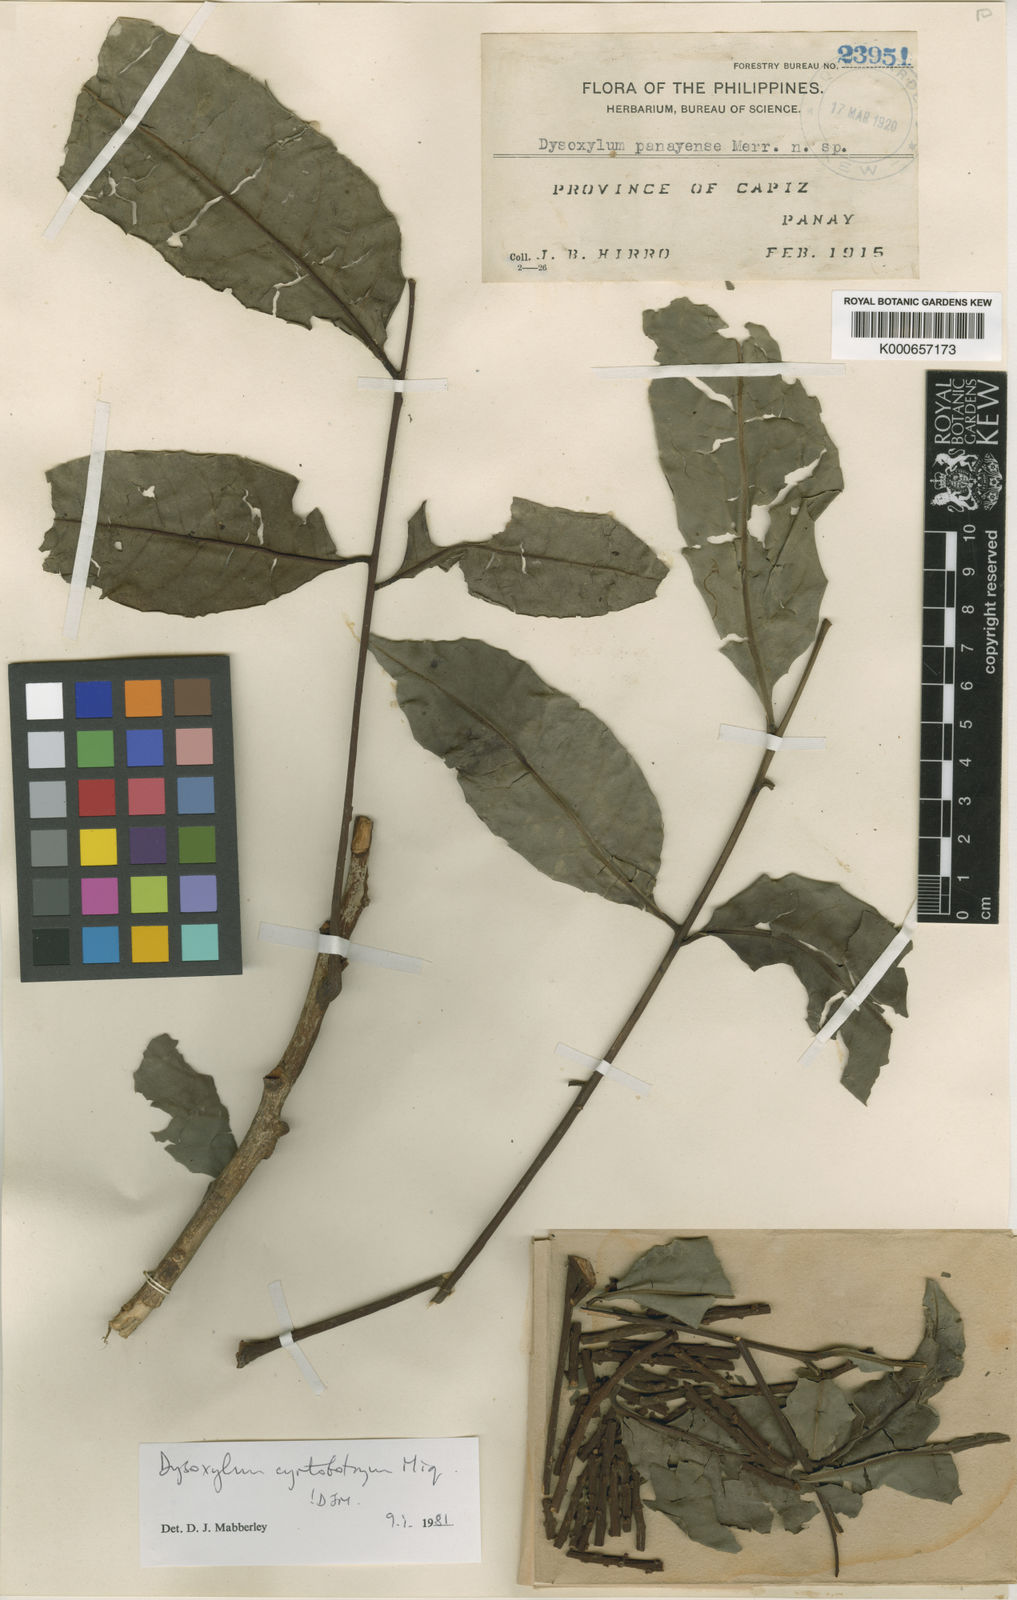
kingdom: Plantae
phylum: Tracheophyta
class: Magnoliopsida
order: Sapindales
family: Meliaceae
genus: Dysoxylum
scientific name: Dysoxylum cyrtobotryum
